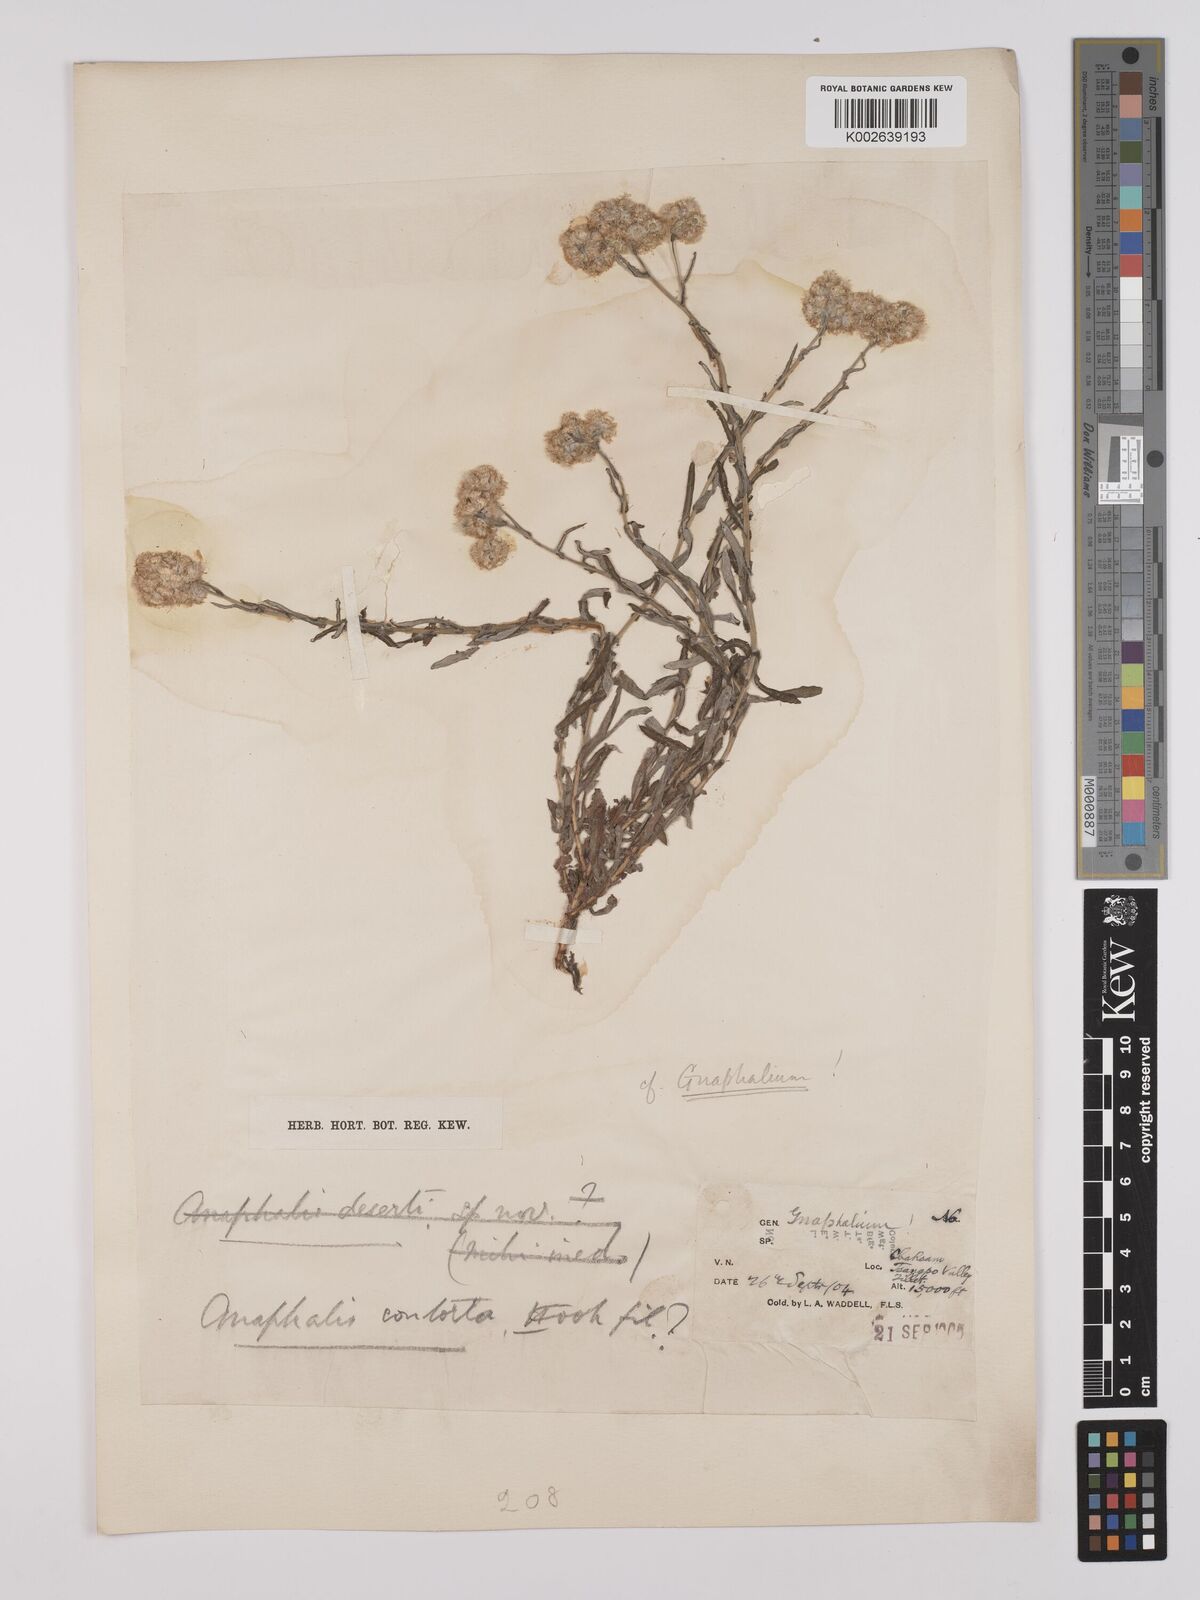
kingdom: Plantae
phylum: Tracheophyta
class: Magnoliopsida
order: Asterales
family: Asteraceae
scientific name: Asteraceae
